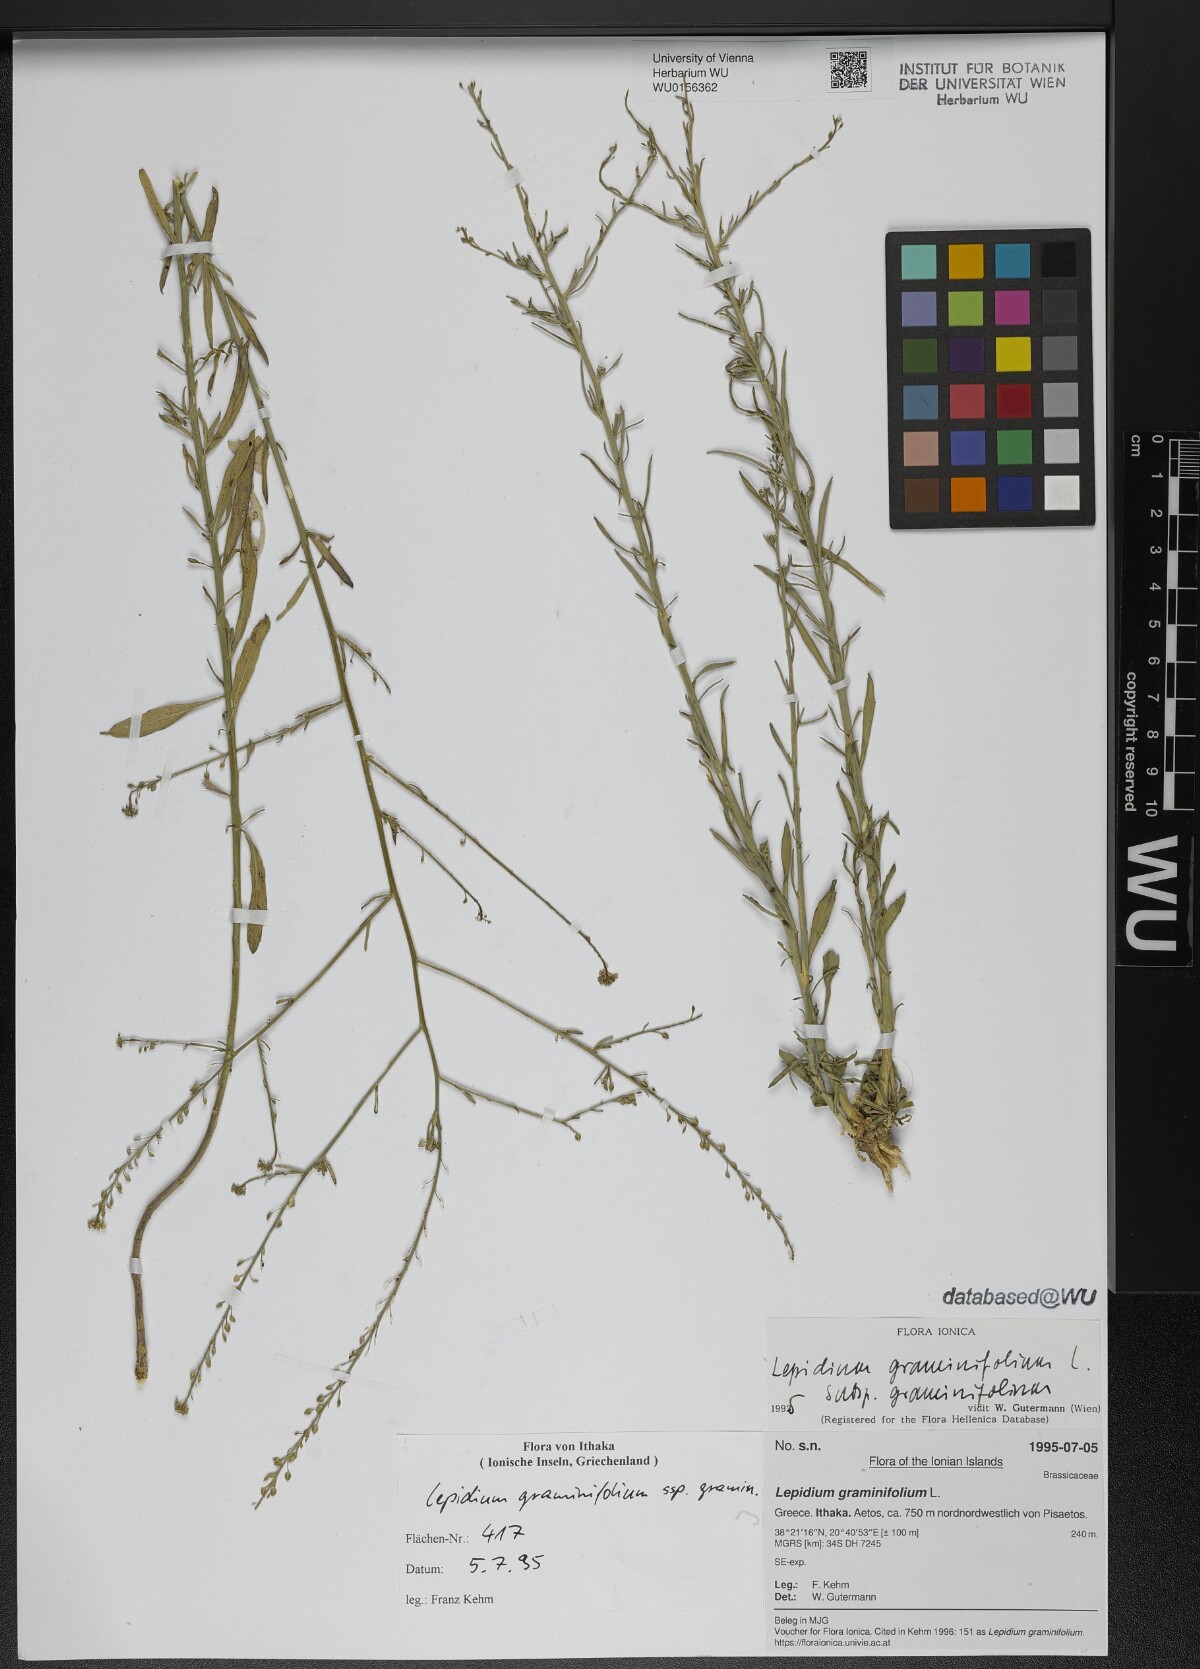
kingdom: Plantae
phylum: Tracheophyta
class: Magnoliopsida
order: Brassicales
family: Brassicaceae
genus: Lepidium
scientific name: Lepidium graminifolium
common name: Tall pepperwort
